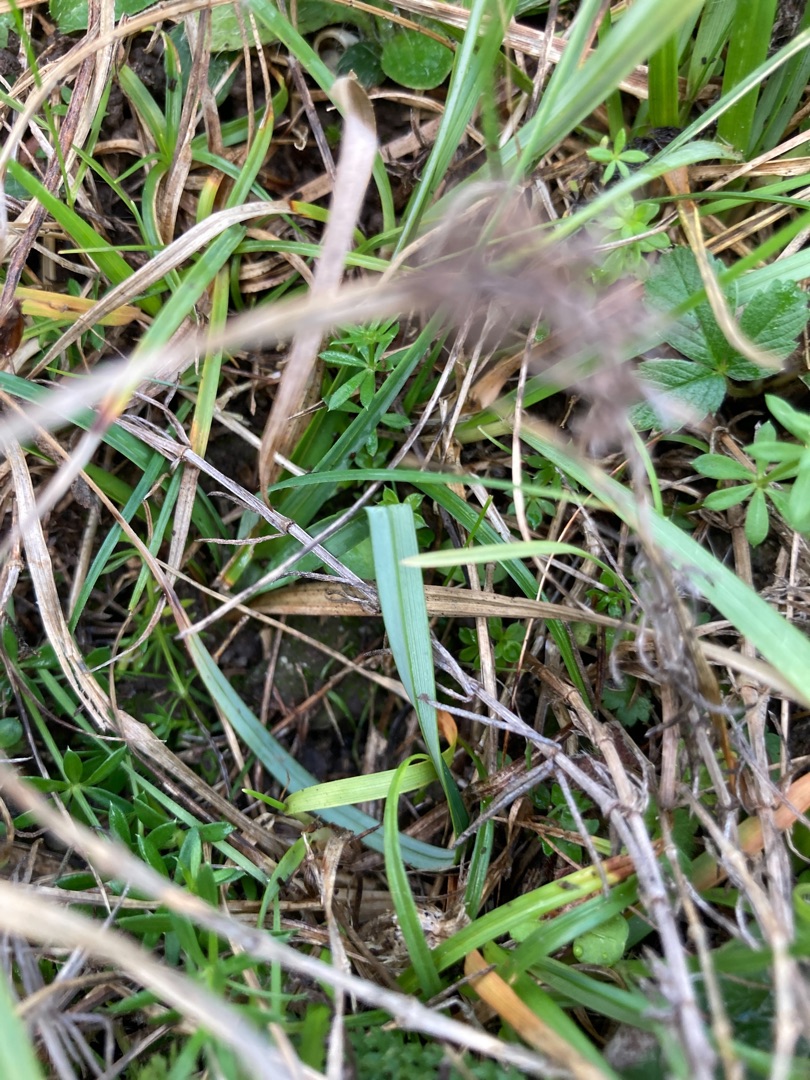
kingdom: Plantae
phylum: Tracheophyta
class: Liliopsida
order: Poales
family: Cyperaceae
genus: Carex
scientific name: Carex flacca
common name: Blågrøn star
